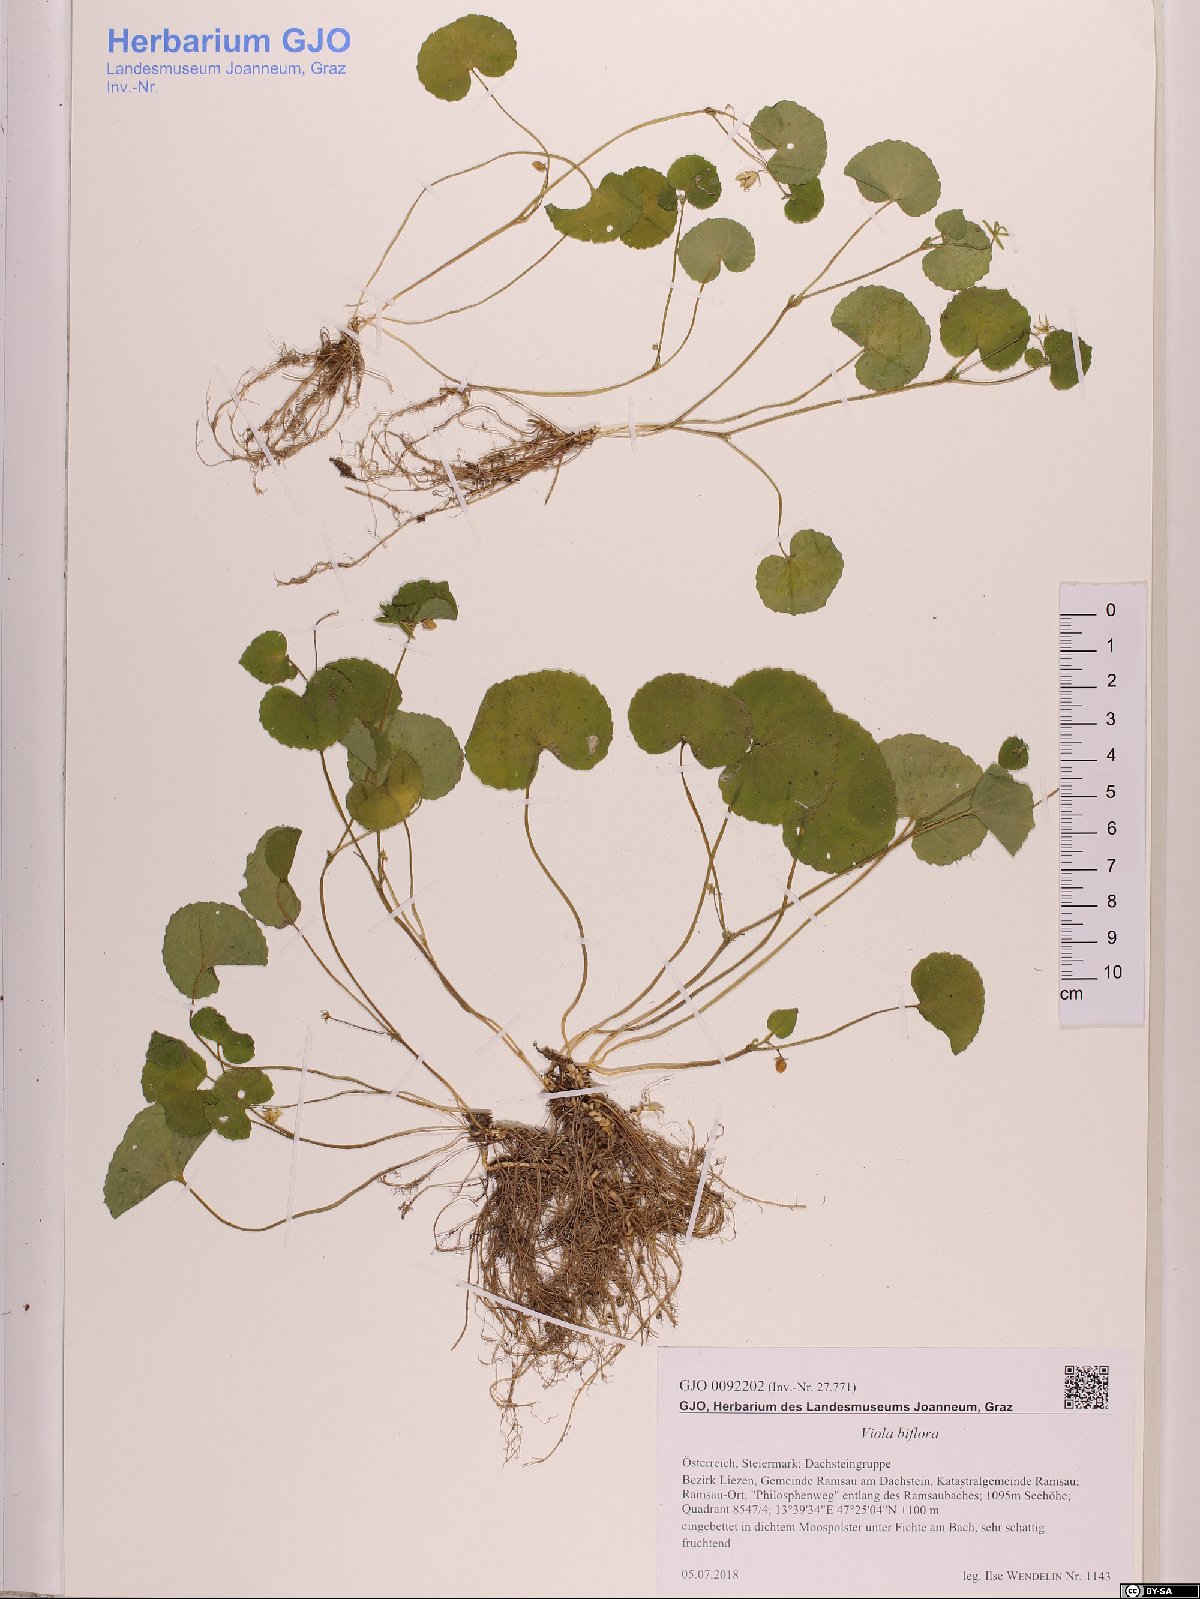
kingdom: Plantae
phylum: Tracheophyta
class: Magnoliopsida
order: Malpighiales
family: Violaceae
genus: Viola
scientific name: Viola biflora
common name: Alpine yellow violet
